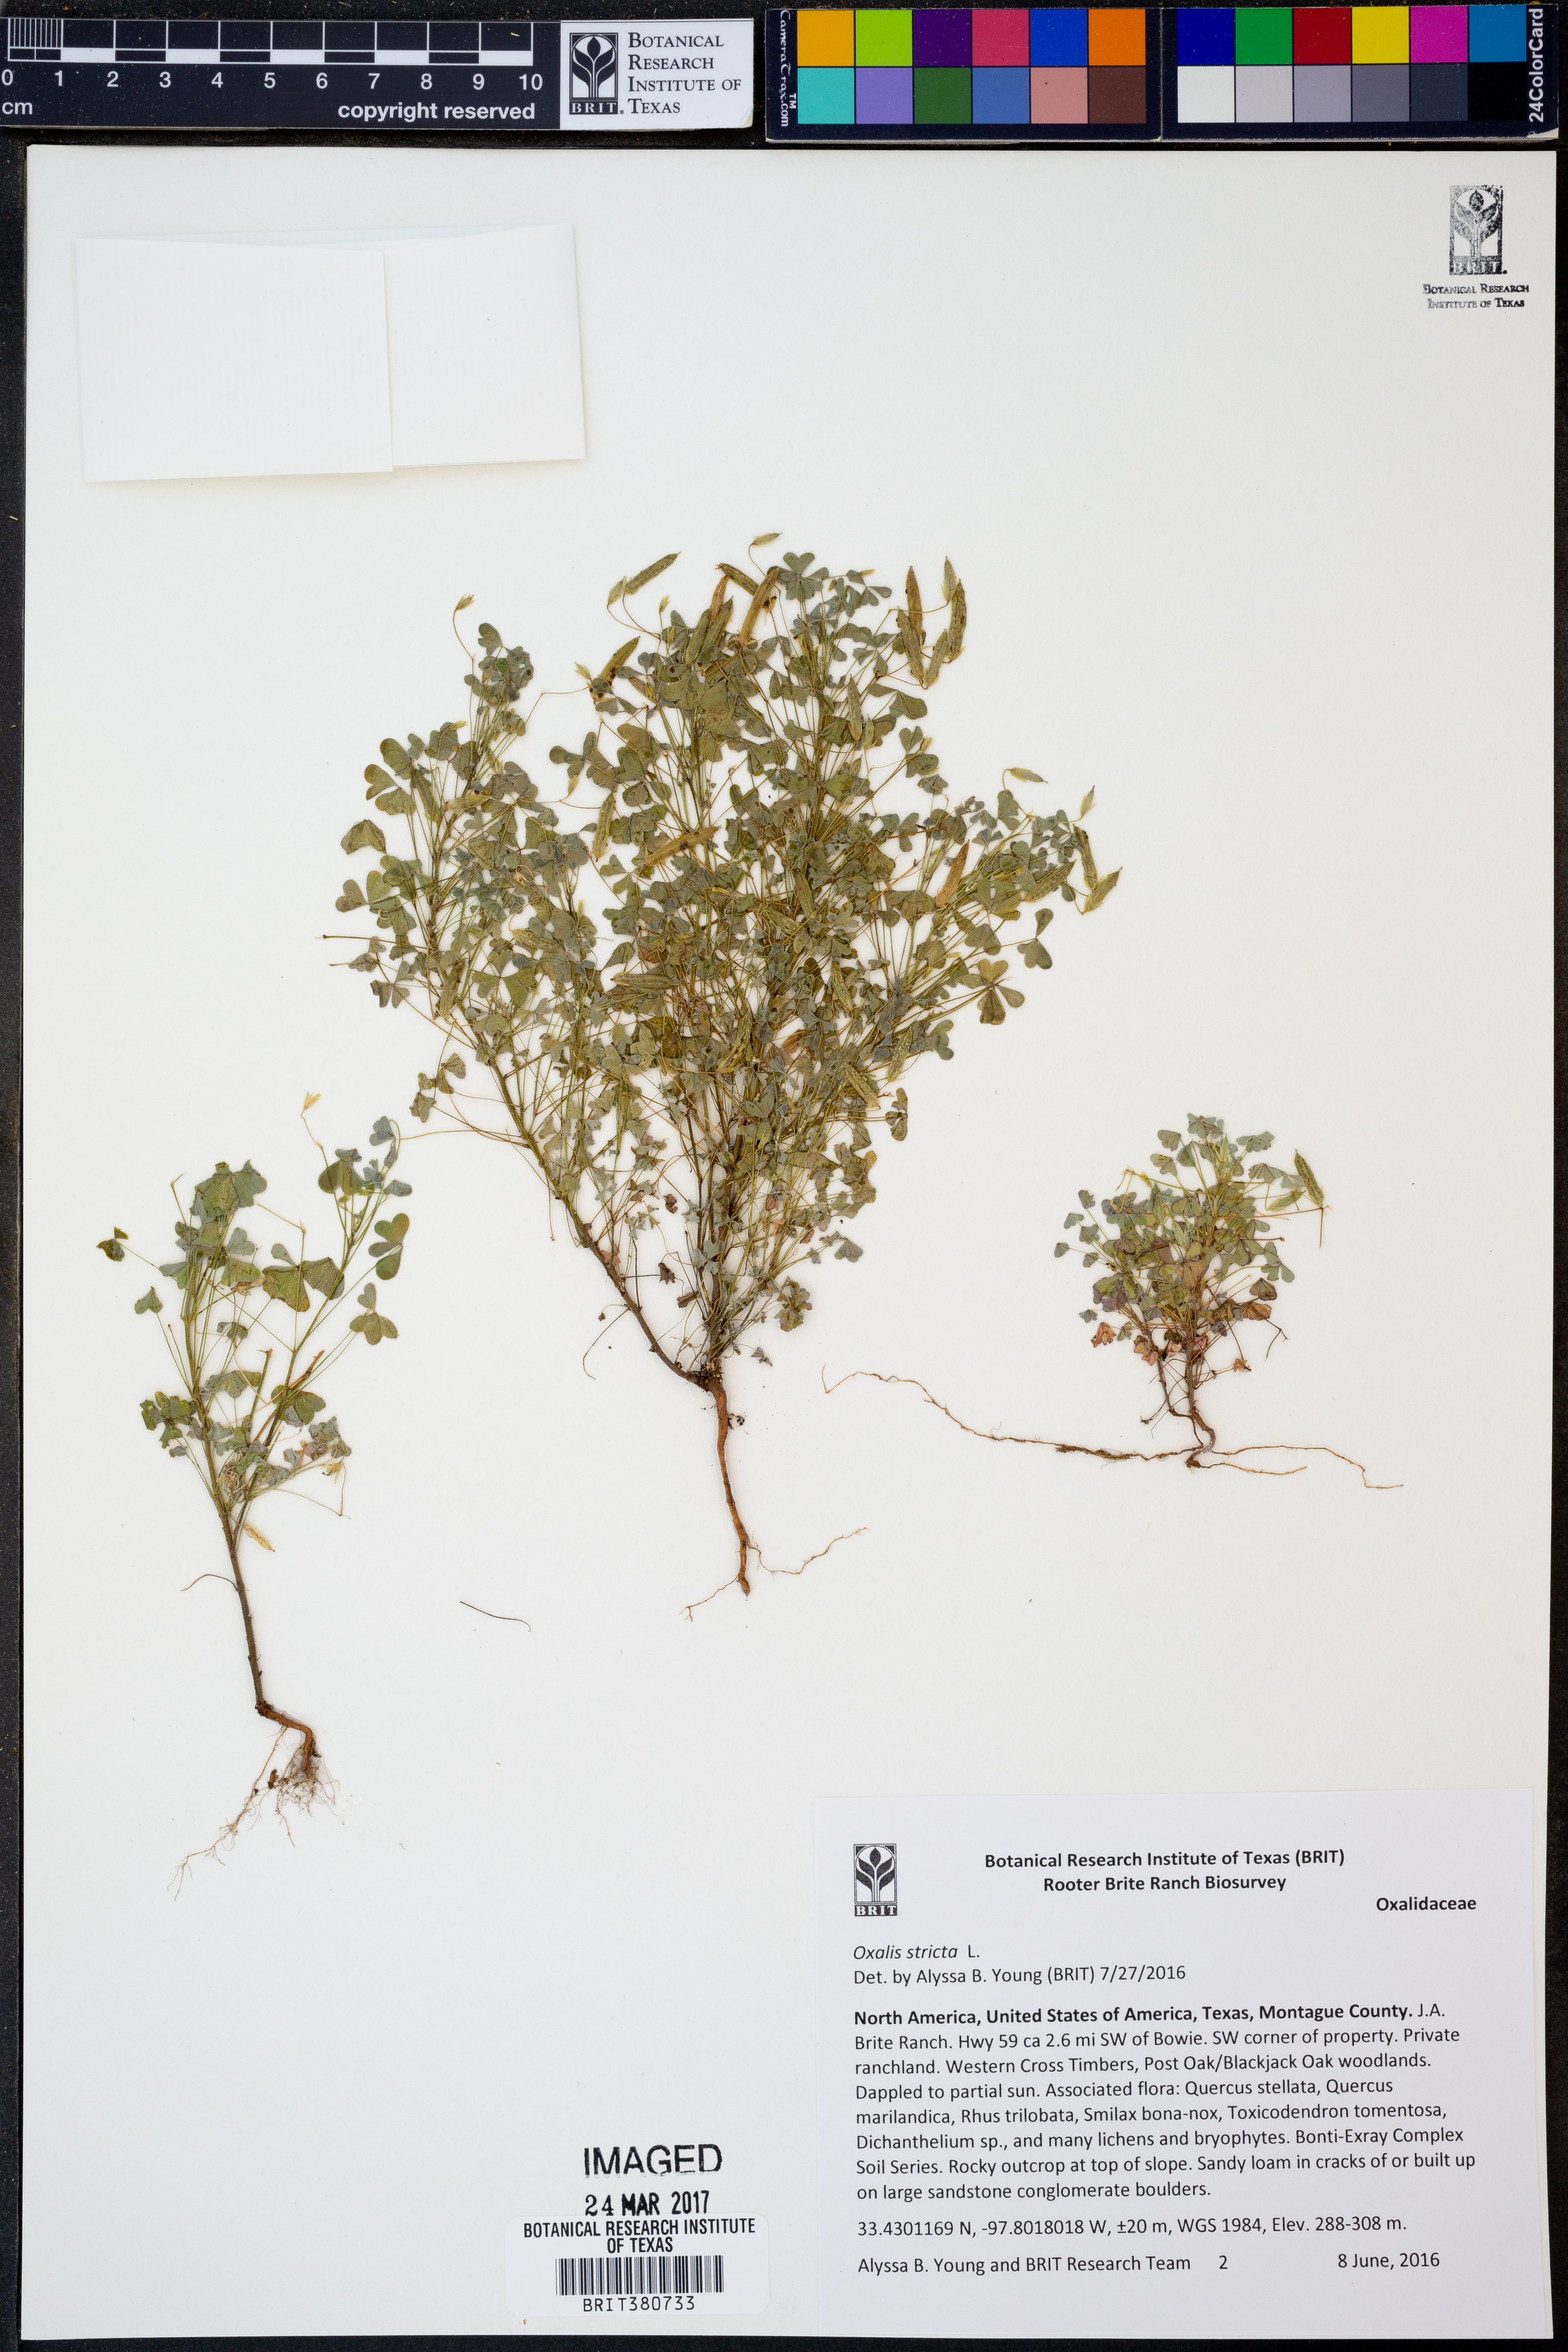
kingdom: Plantae
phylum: Tracheophyta
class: Magnoliopsida
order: Oxalidales
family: Oxalidaceae
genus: Oxalis
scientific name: Oxalis stricta
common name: Upright yellow-sorrel
